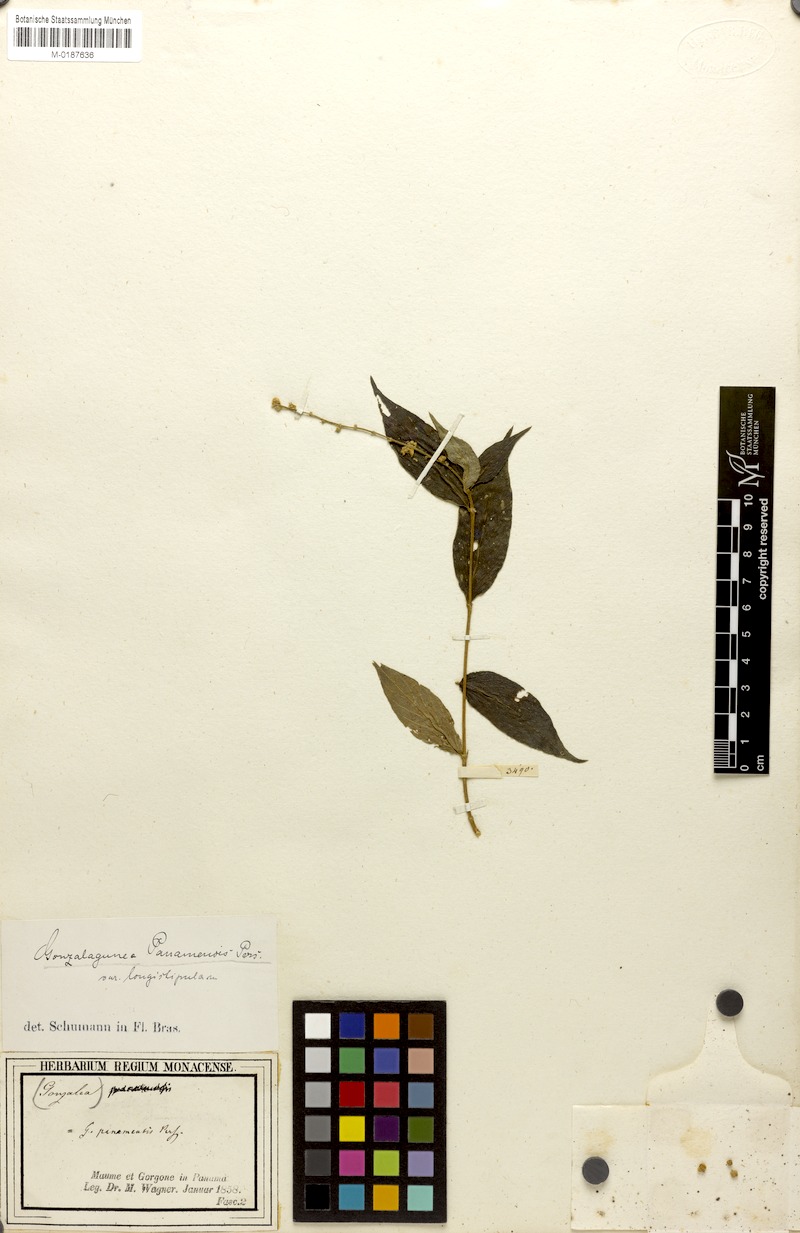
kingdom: Plantae
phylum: Tracheophyta
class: Magnoliopsida
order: Gentianales
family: Rubiaceae
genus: Gonzalagunia
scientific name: Gonzalagunia cornifolia
